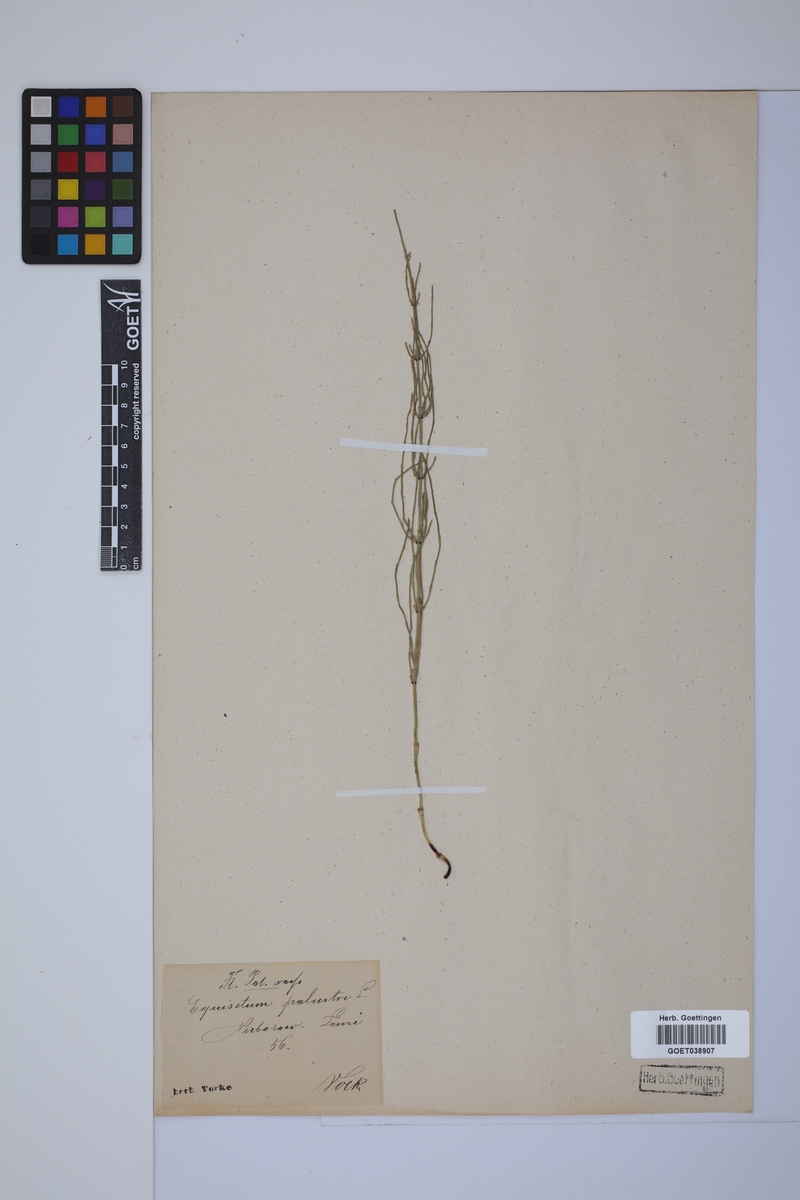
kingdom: Plantae
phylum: Tracheophyta
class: Polypodiopsida
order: Equisetales
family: Equisetaceae
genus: Equisetum
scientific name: Equisetum palustre
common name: Marsh horsetail
